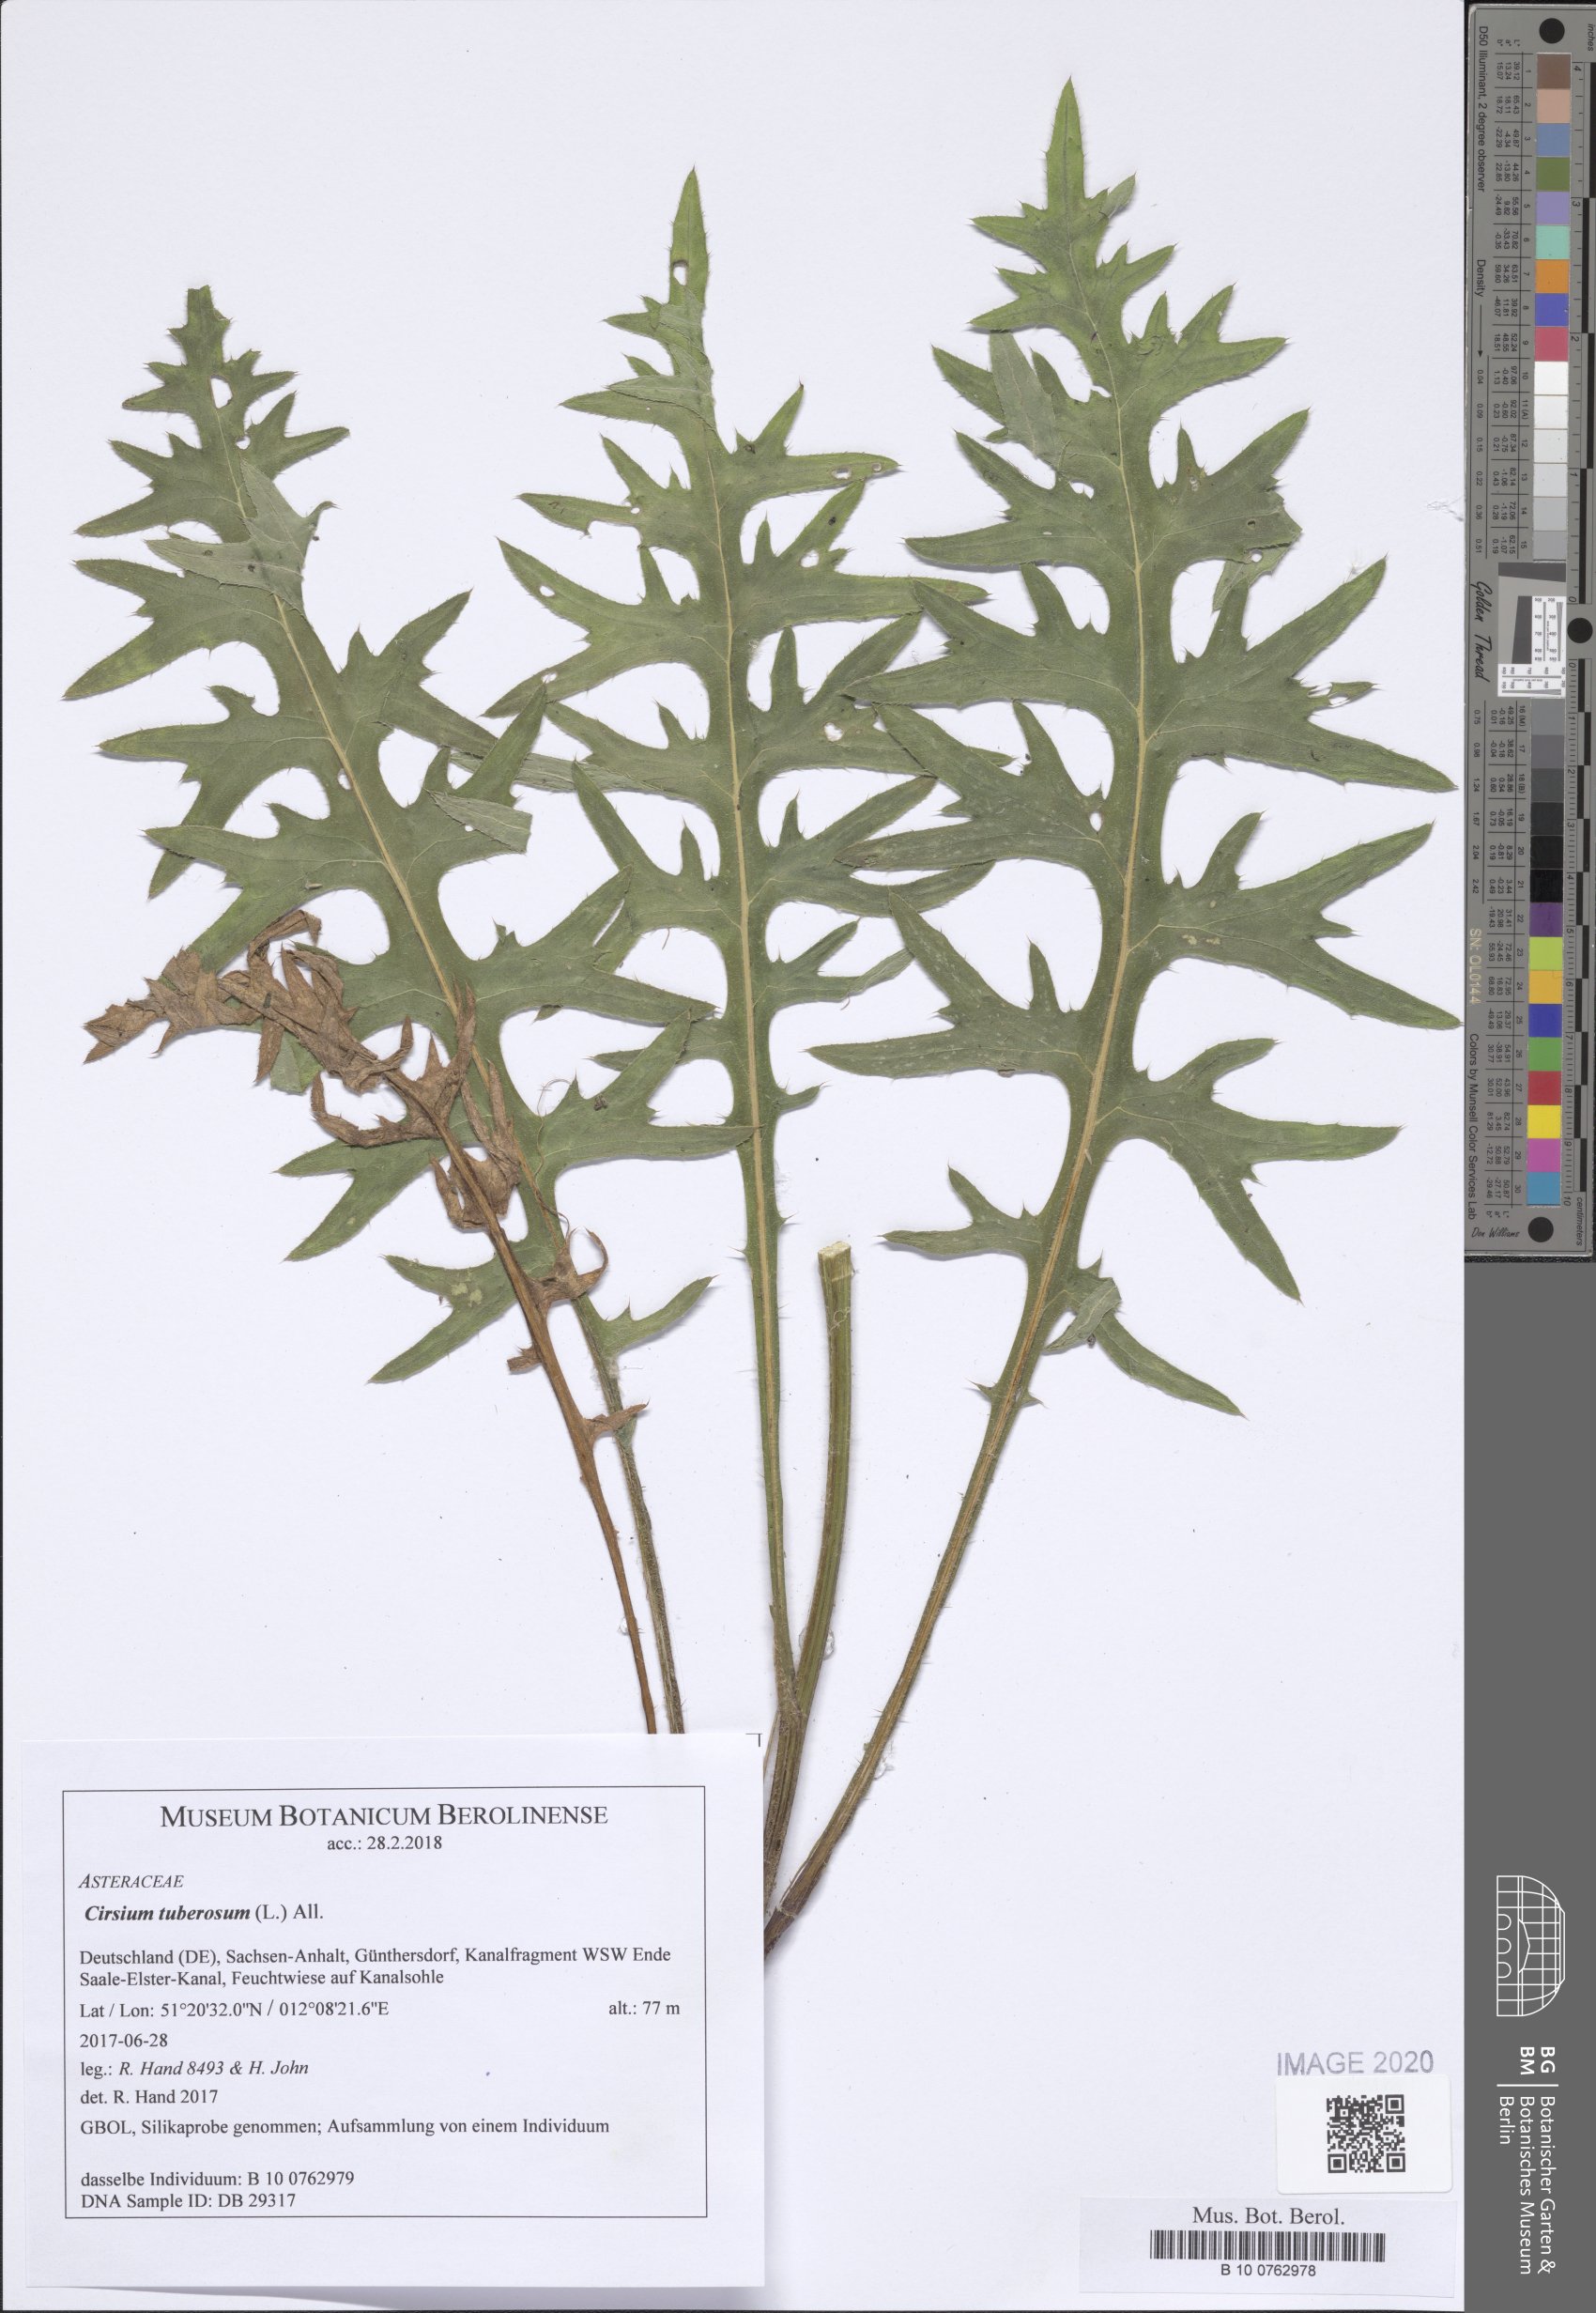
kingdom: Plantae
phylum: Tracheophyta
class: Magnoliopsida
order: Asterales
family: Asteraceae
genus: Cirsium
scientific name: Cirsium tuberosum
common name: Tuberous thistle
